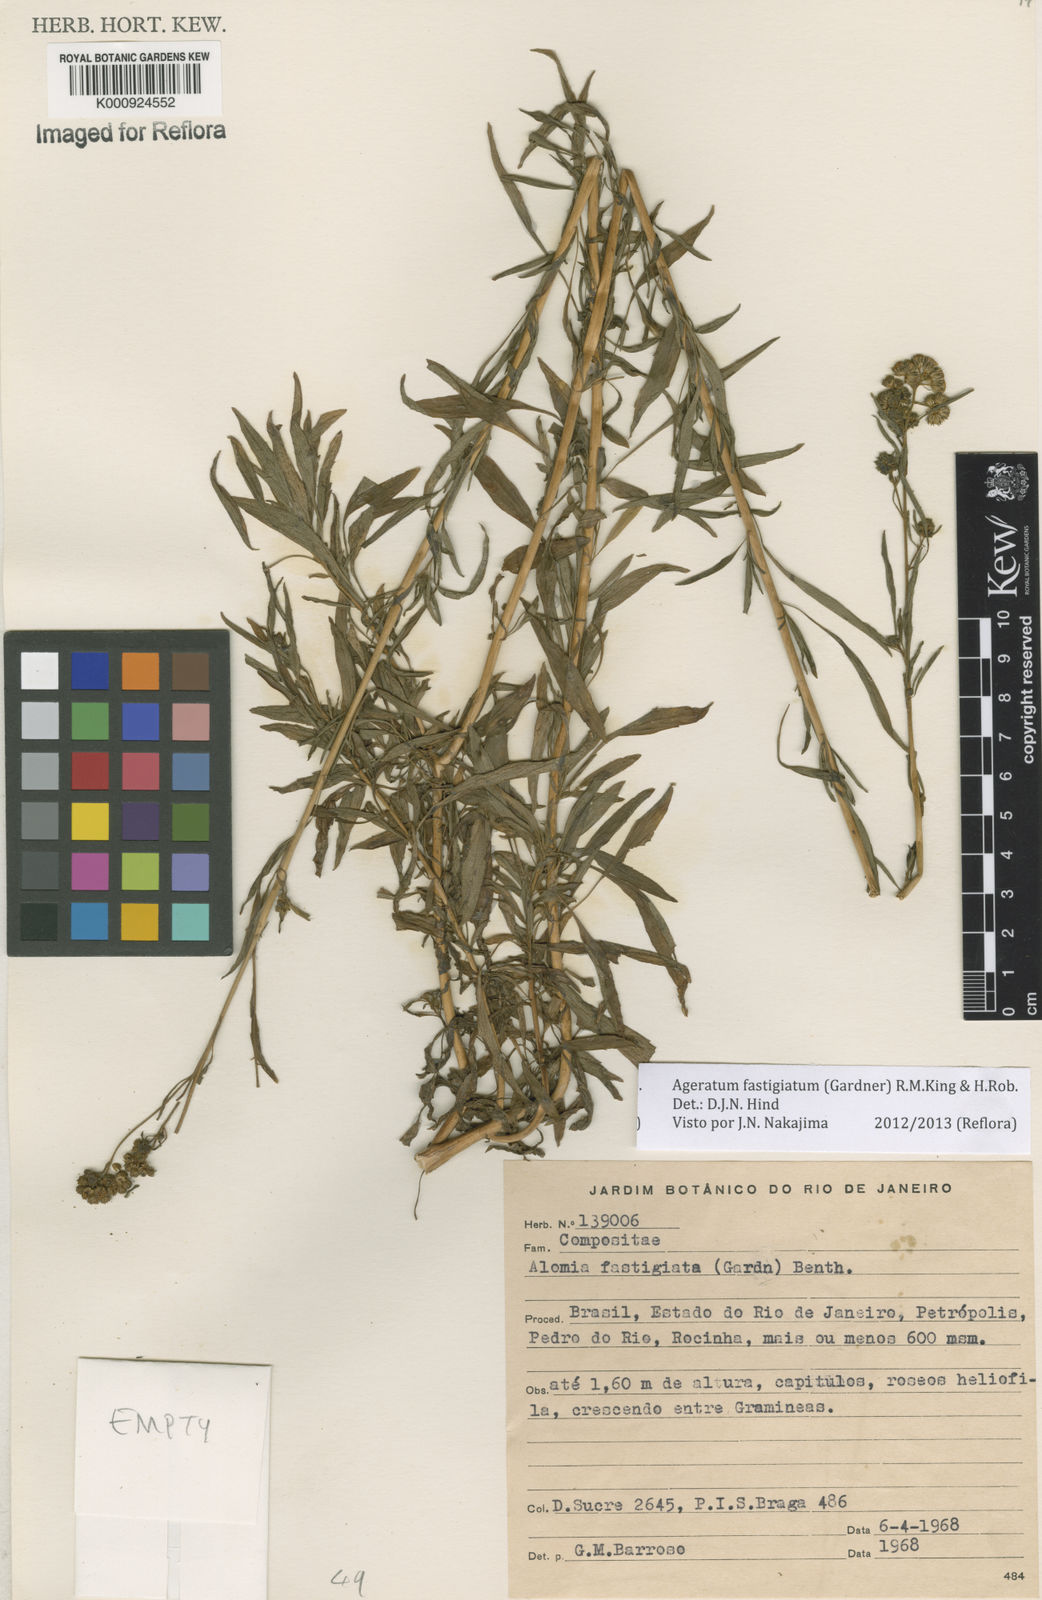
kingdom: Plantae
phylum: Tracheophyta
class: Magnoliopsida
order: Asterales
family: Asteraceae
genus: Ageratum
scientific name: Ageratum fastigiatum
